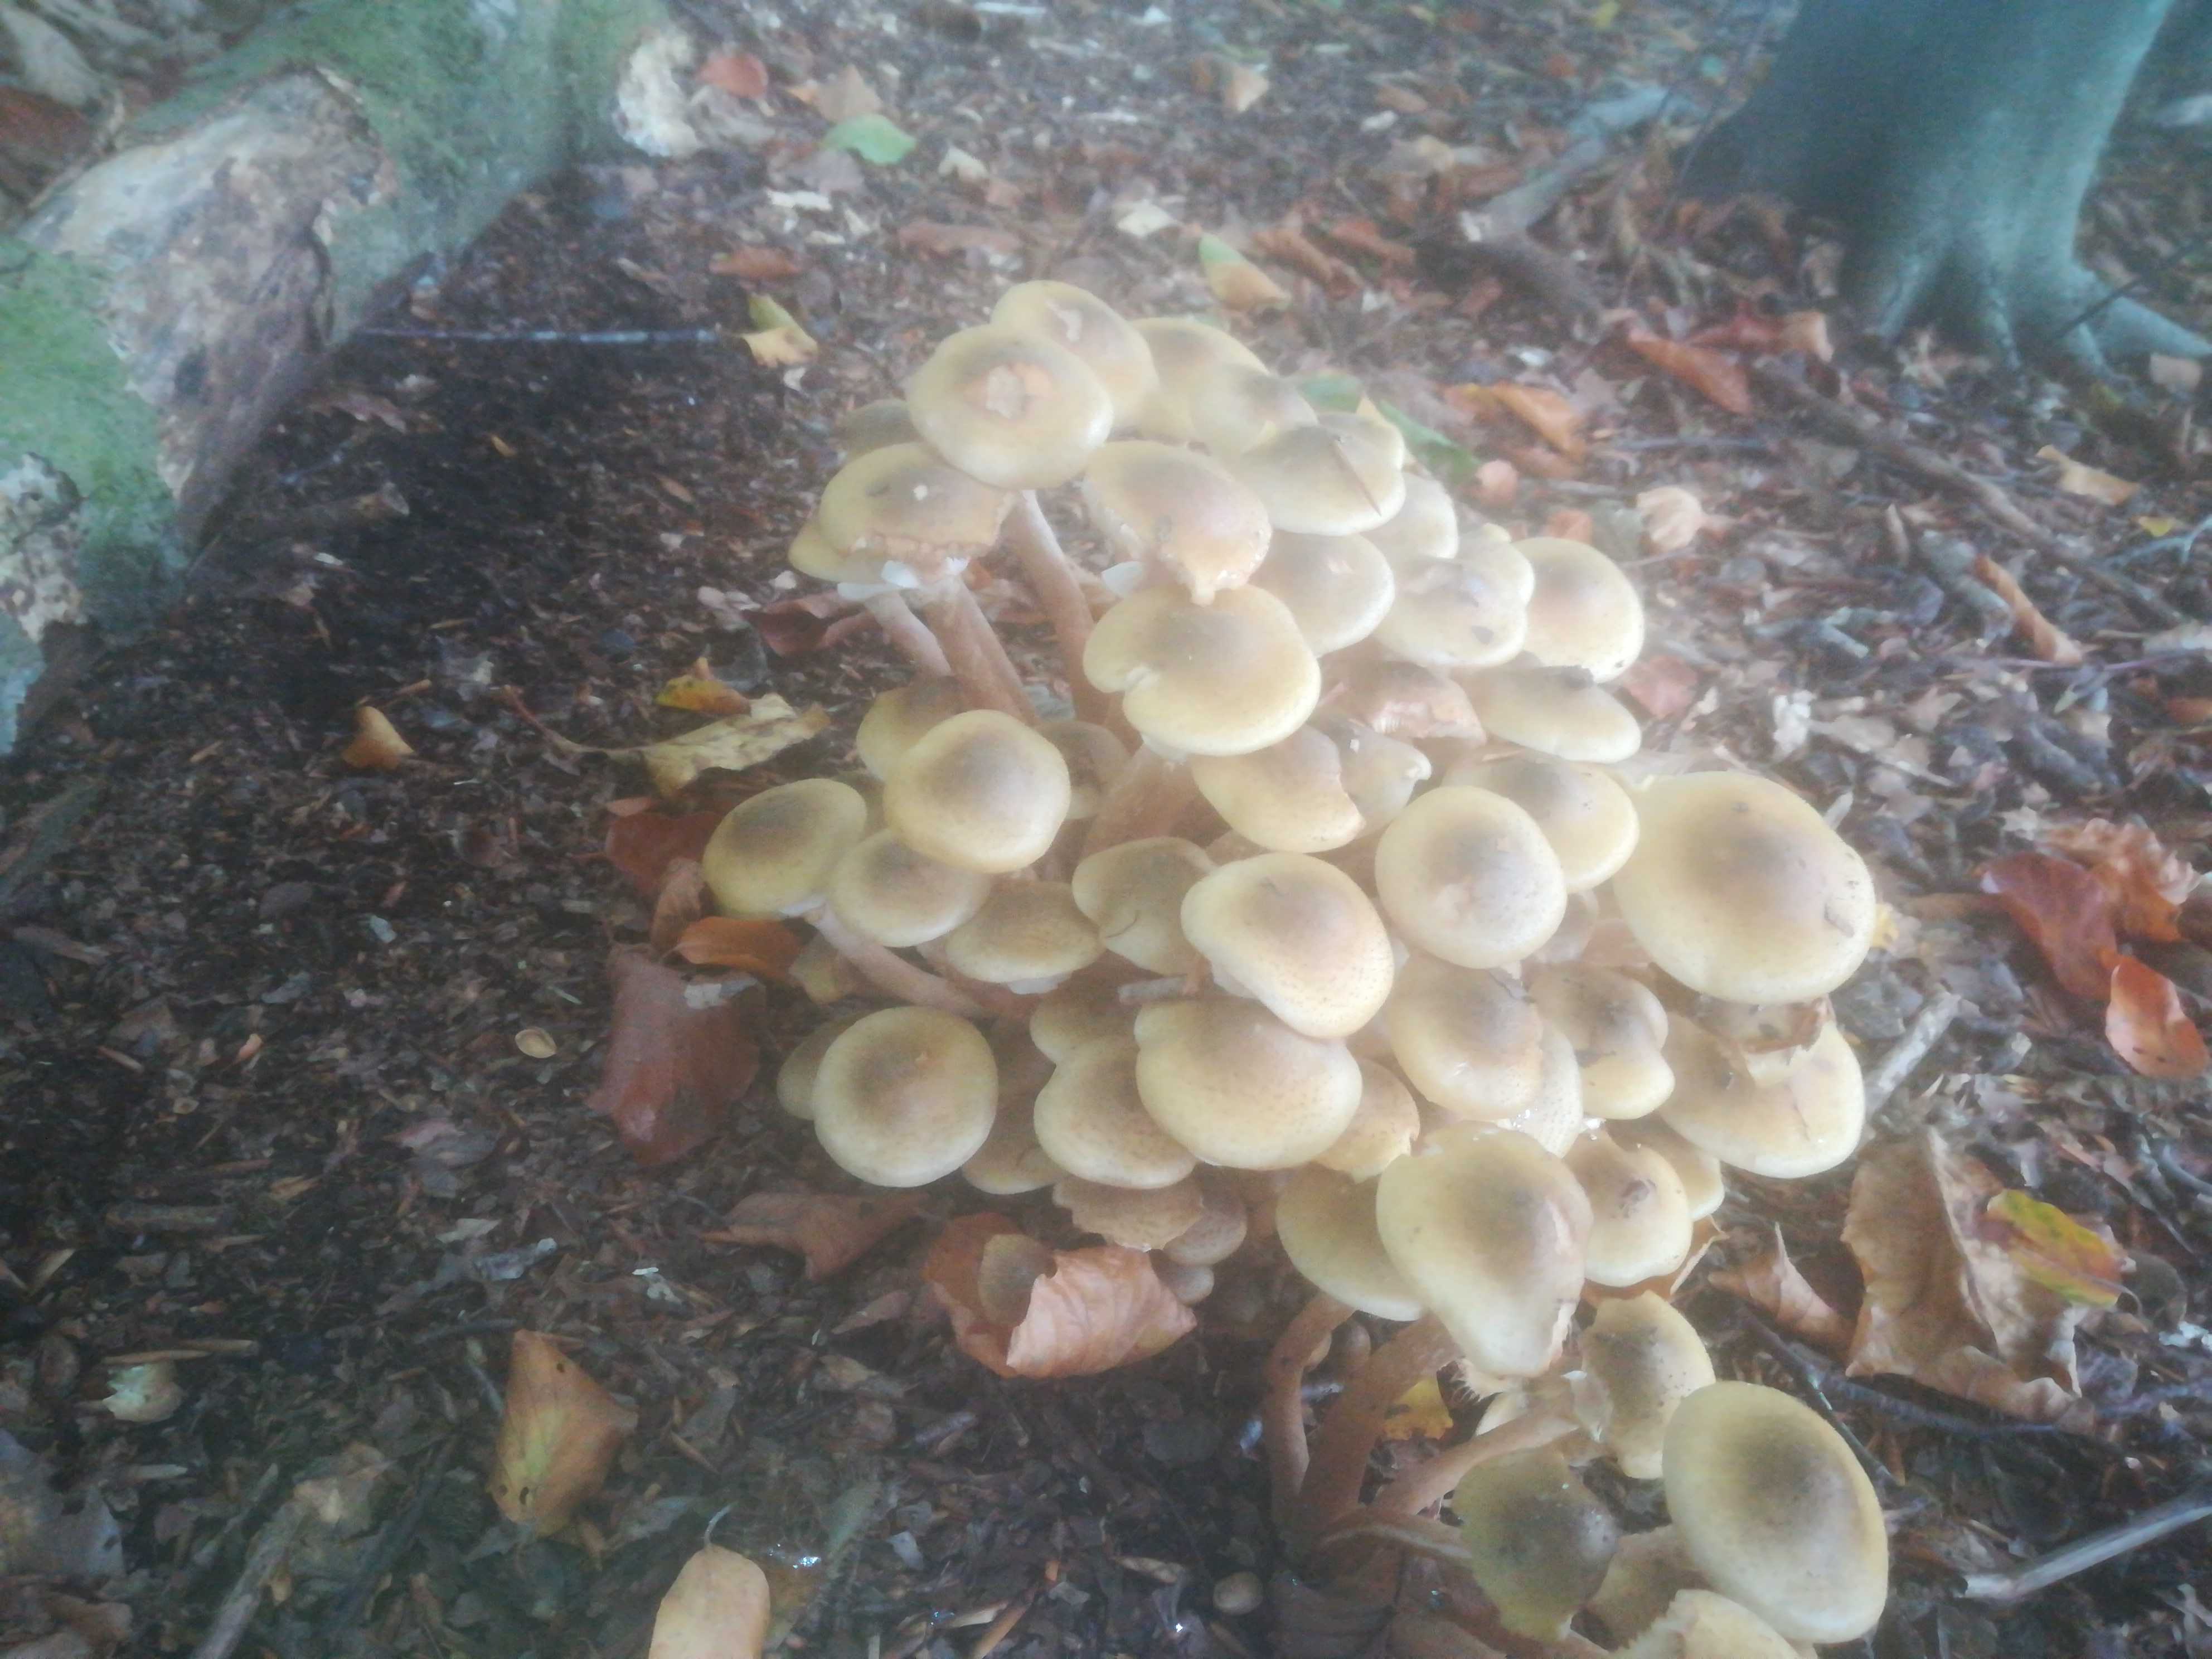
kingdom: Fungi
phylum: Basidiomycota
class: Agaricomycetes
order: Agaricales
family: Physalacriaceae
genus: Armillaria
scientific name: Armillaria mellea
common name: ægte honningsvamp
